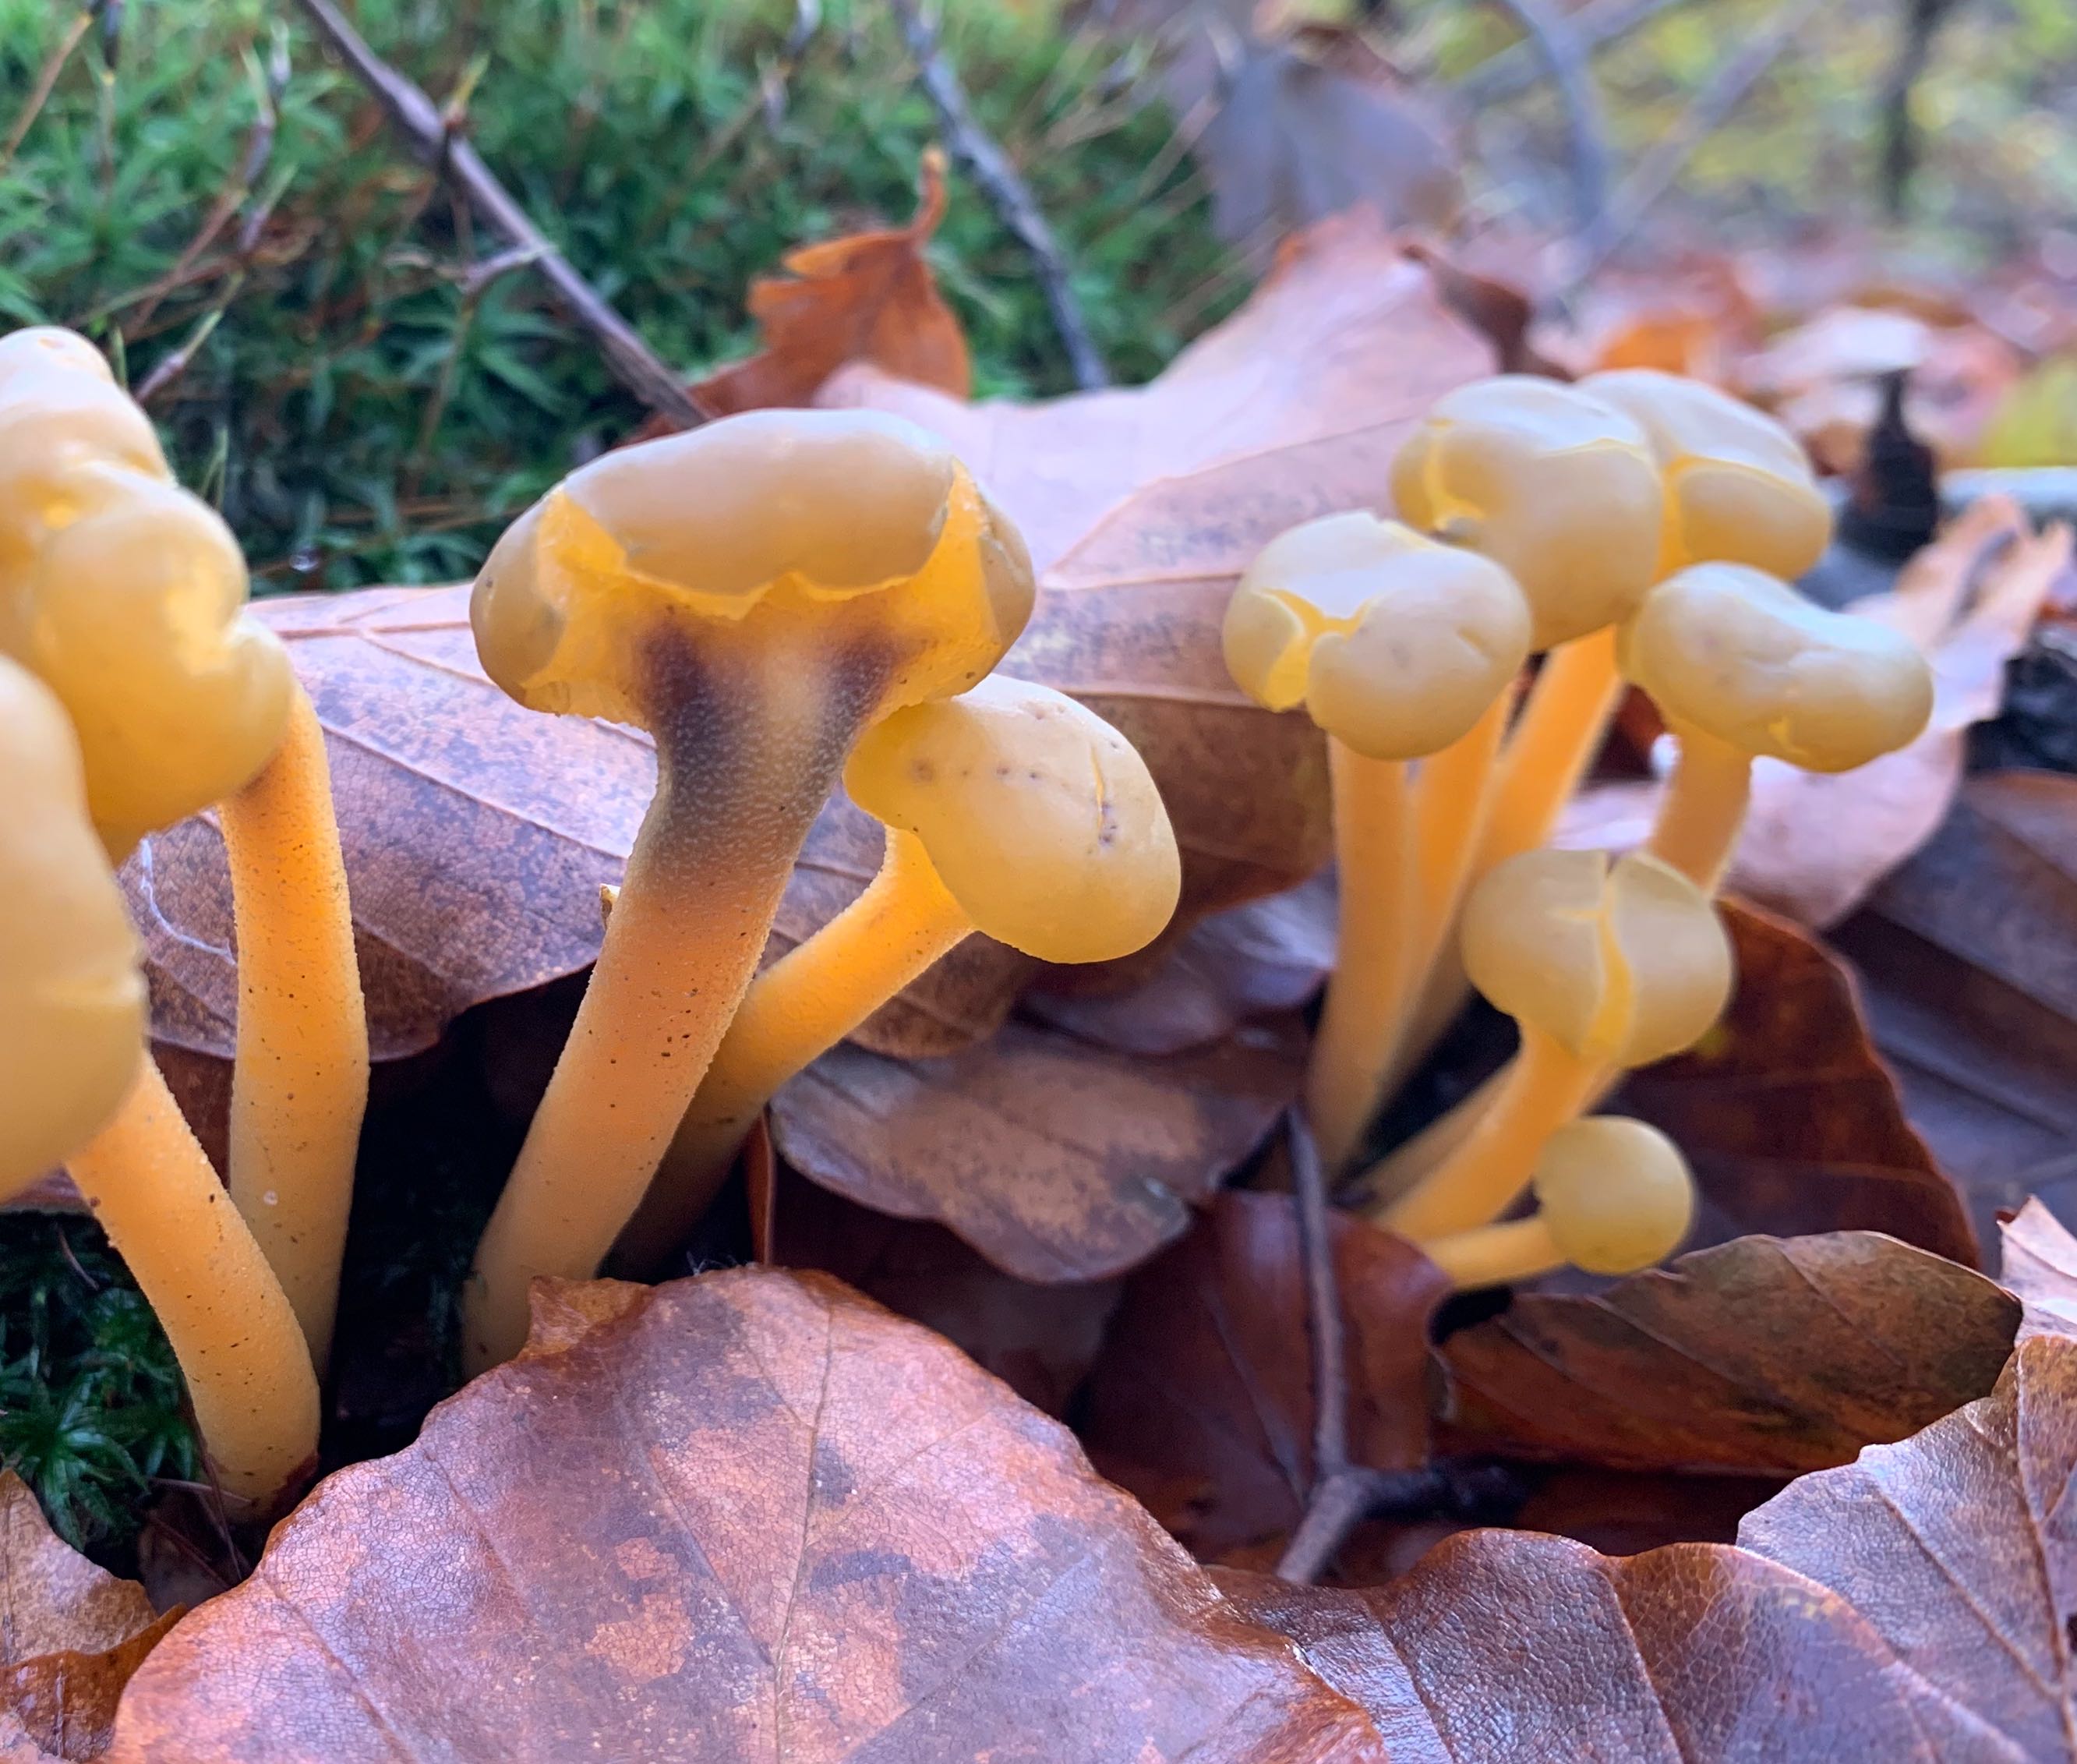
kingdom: Fungi
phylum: Ascomycota
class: Leotiomycetes
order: Leotiales
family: Leotiaceae
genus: Leotia
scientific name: Leotia lubrica
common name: ravsvamp
